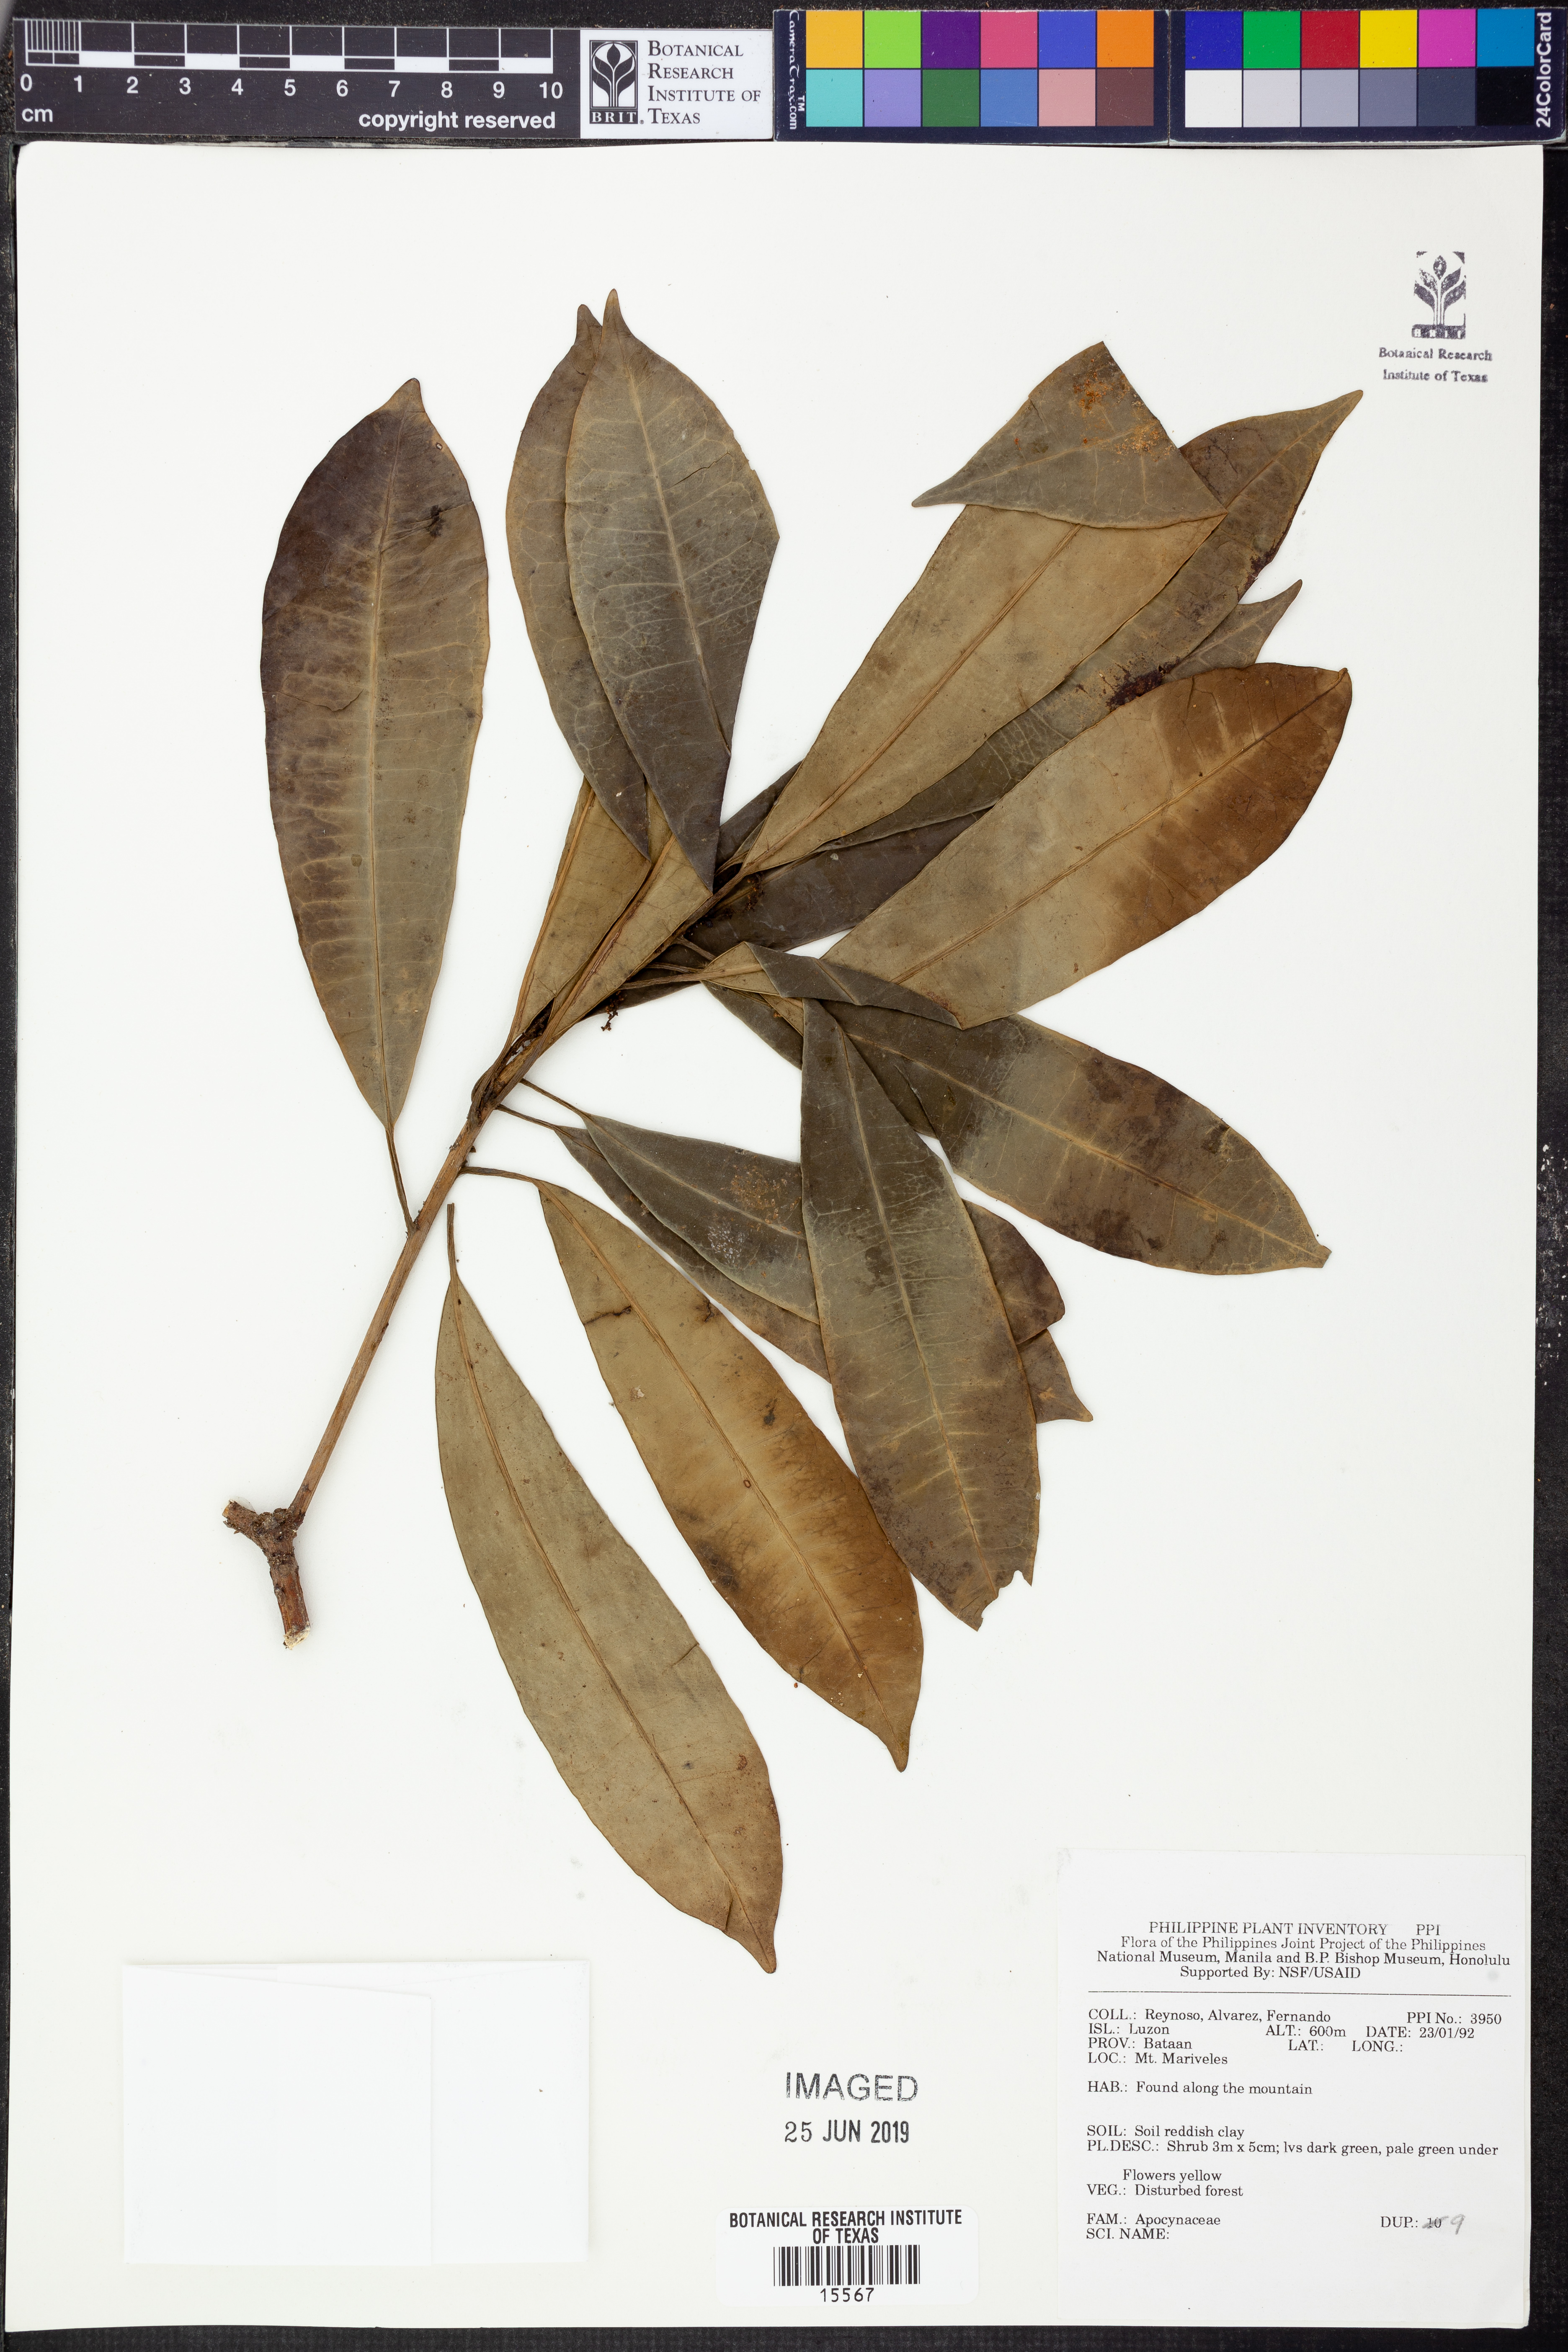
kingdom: Plantae
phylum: Tracheophyta
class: Magnoliopsida
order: Gentianales
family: Apocynaceae
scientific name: Apocynaceae
